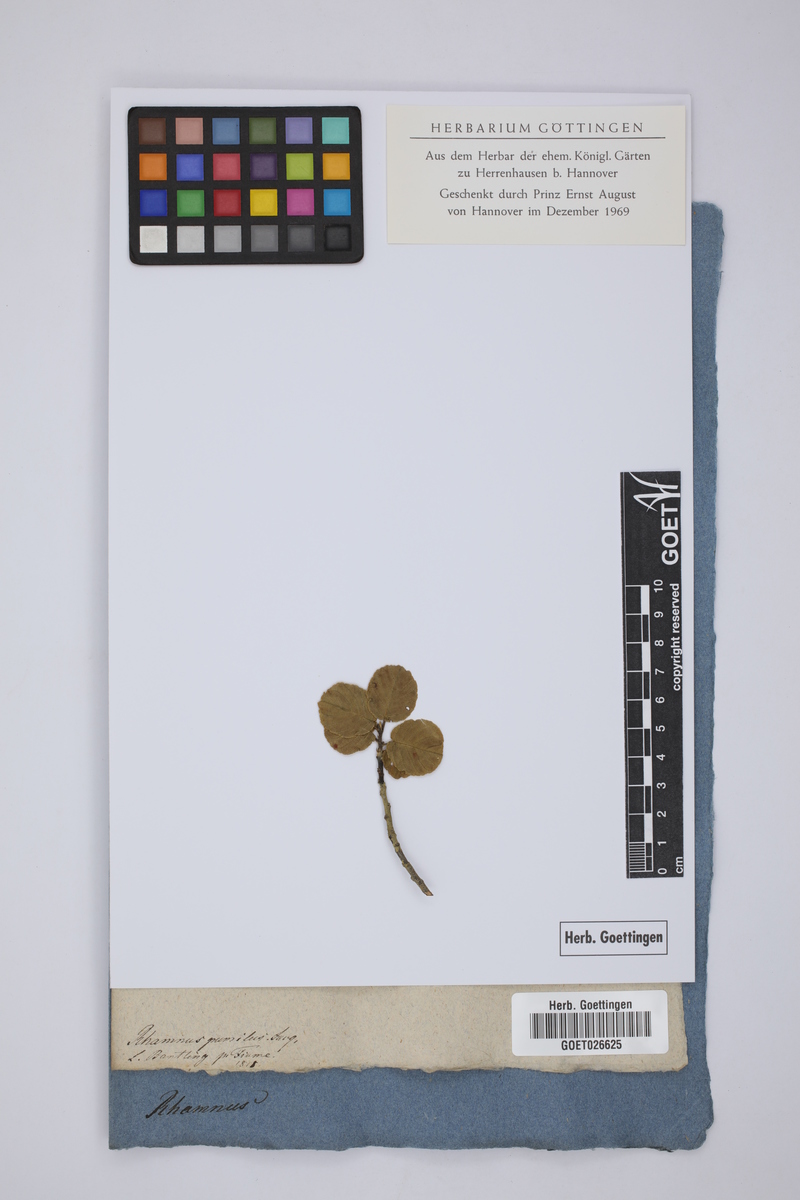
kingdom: Plantae
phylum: Tracheophyta
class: Magnoliopsida
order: Rosales
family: Rhamnaceae
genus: Frangula
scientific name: Frangula rupestris
